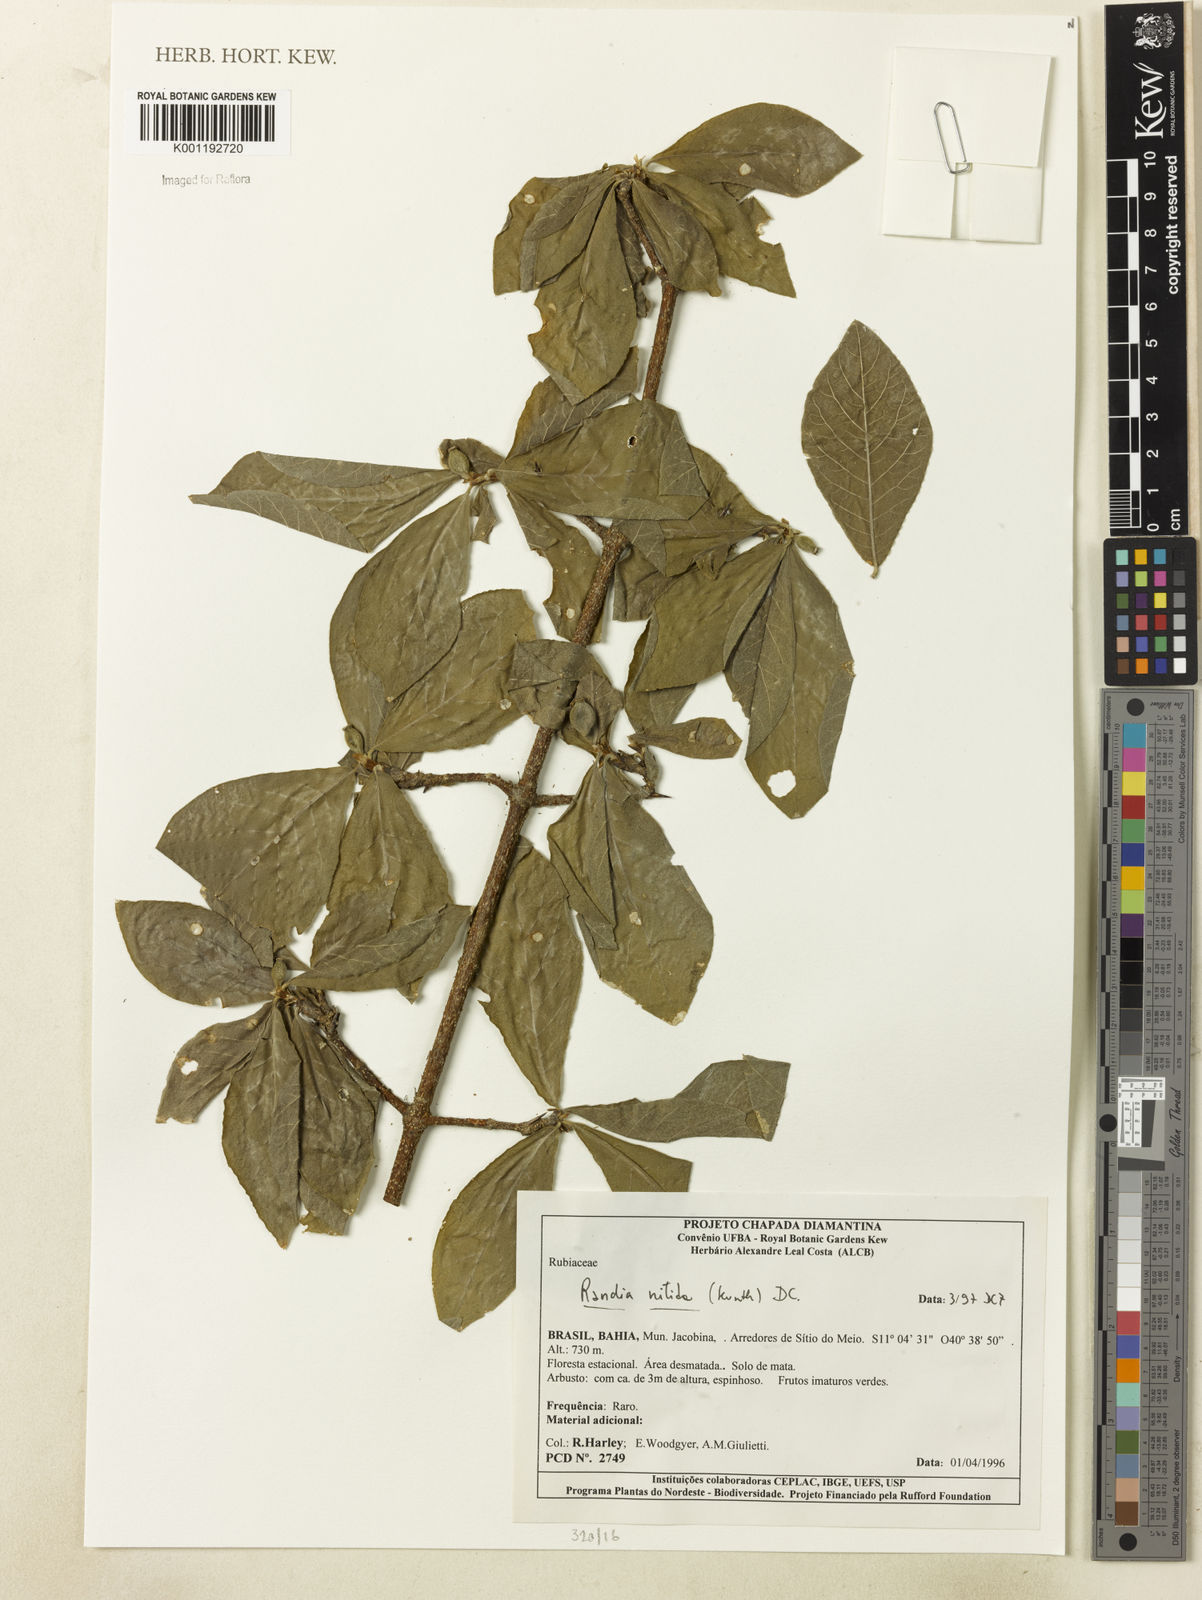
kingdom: Plantae
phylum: Tracheophyta
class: Magnoliopsida
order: Gentianales
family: Rubiaceae
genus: Randia
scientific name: Randia nitida
